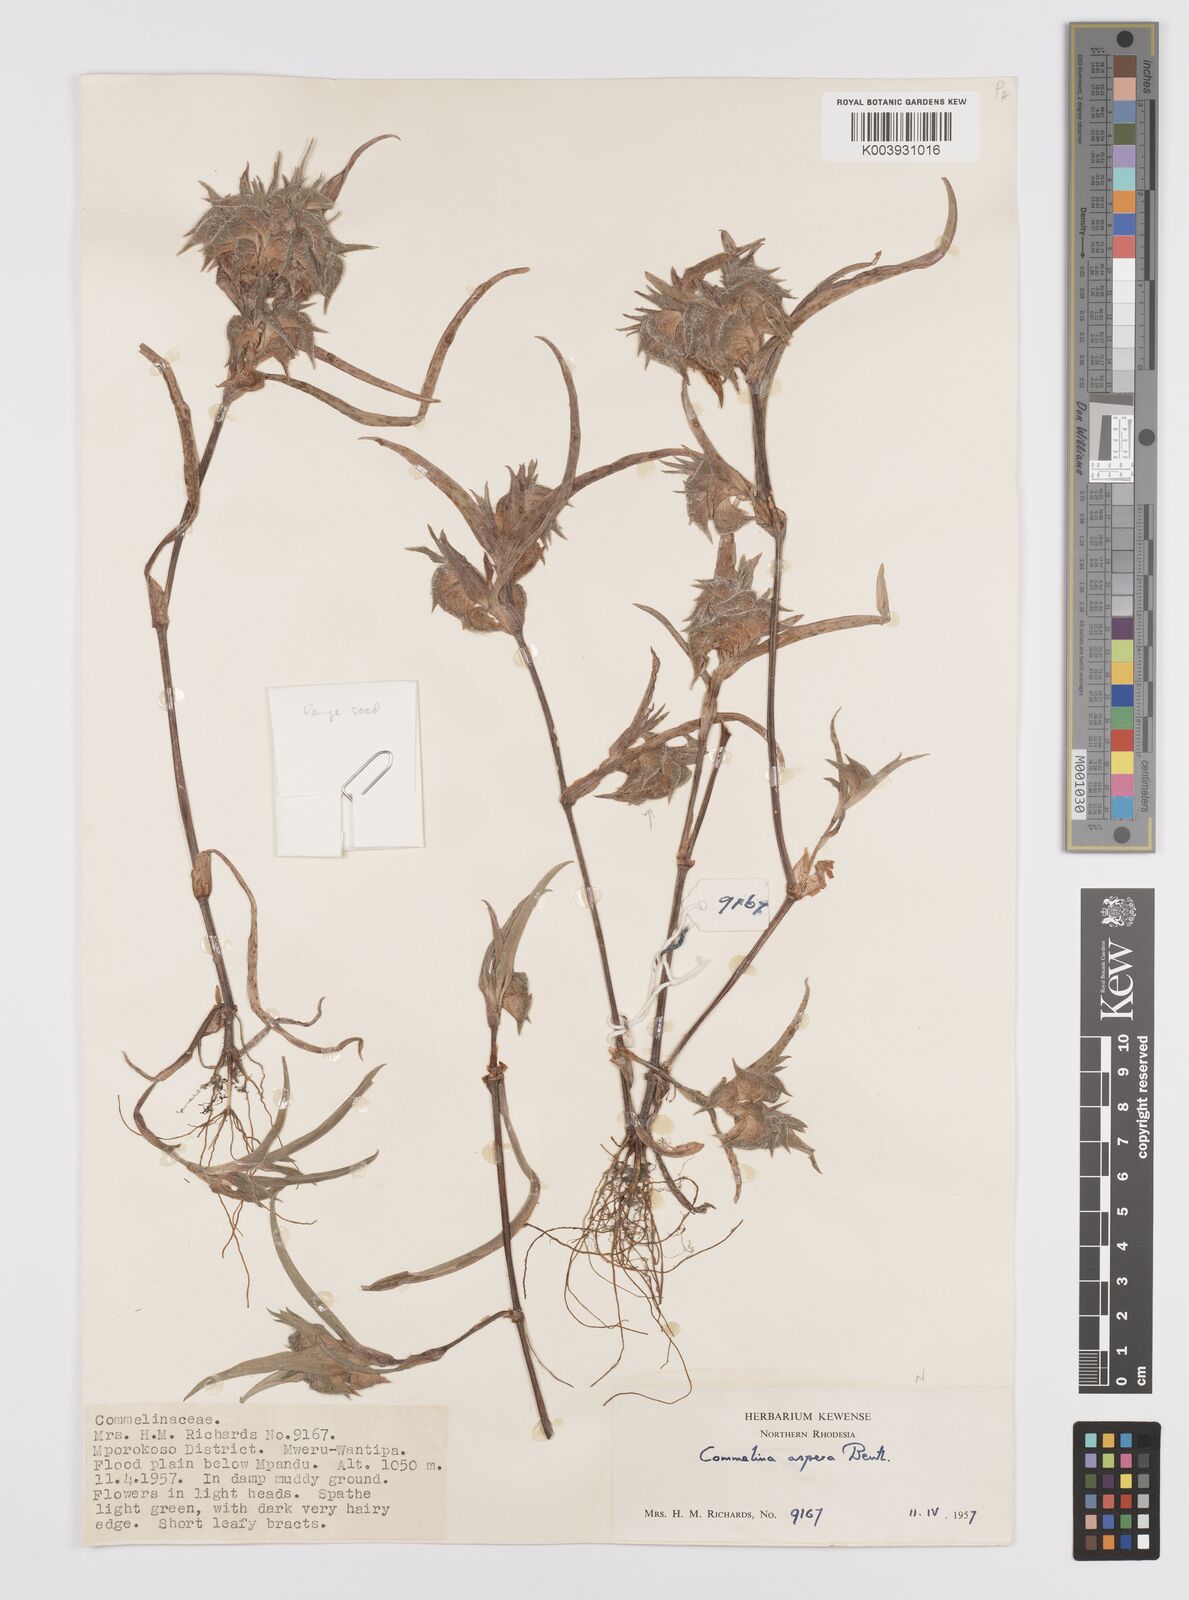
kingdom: Plantae
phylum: Tracheophyta
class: Liliopsida
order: Commelinales
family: Commelinaceae
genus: Commelina
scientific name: Commelina aspera
